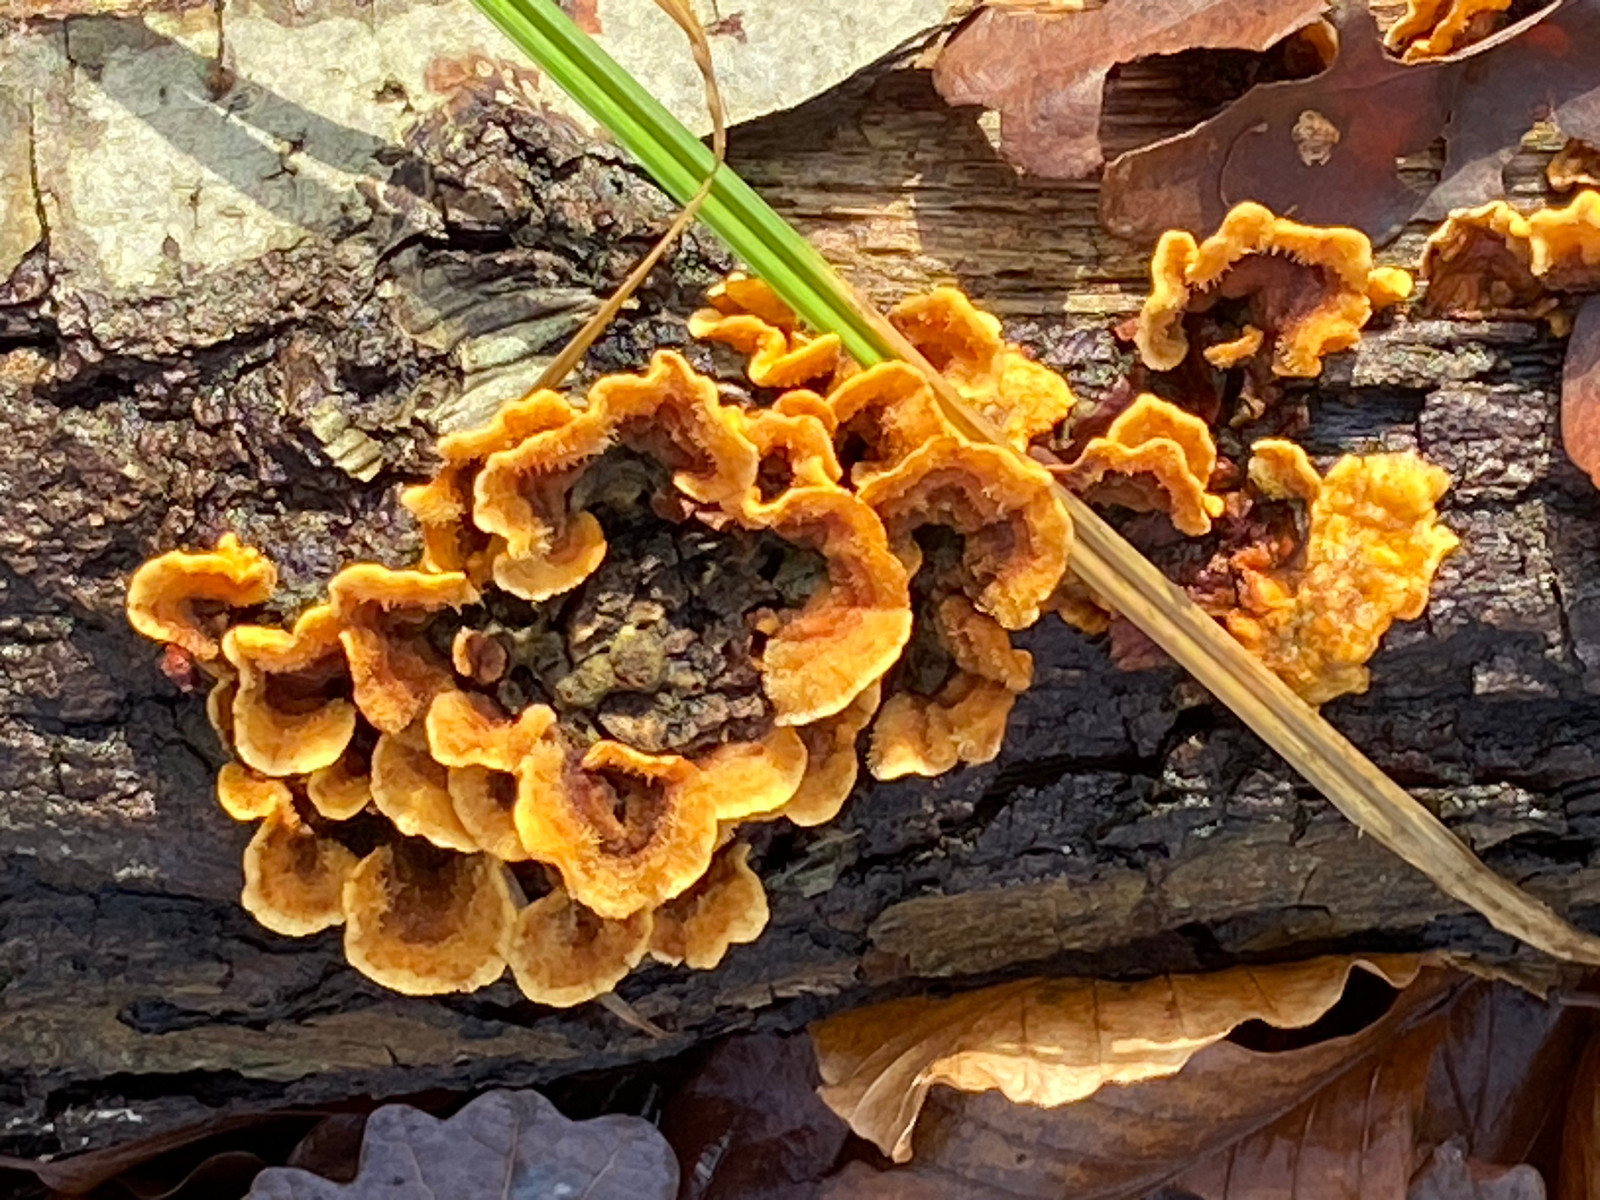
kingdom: Fungi
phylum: Basidiomycota
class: Agaricomycetes
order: Russulales
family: Stereaceae
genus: Stereum
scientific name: Stereum hirsutum
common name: håret lædersvamp
